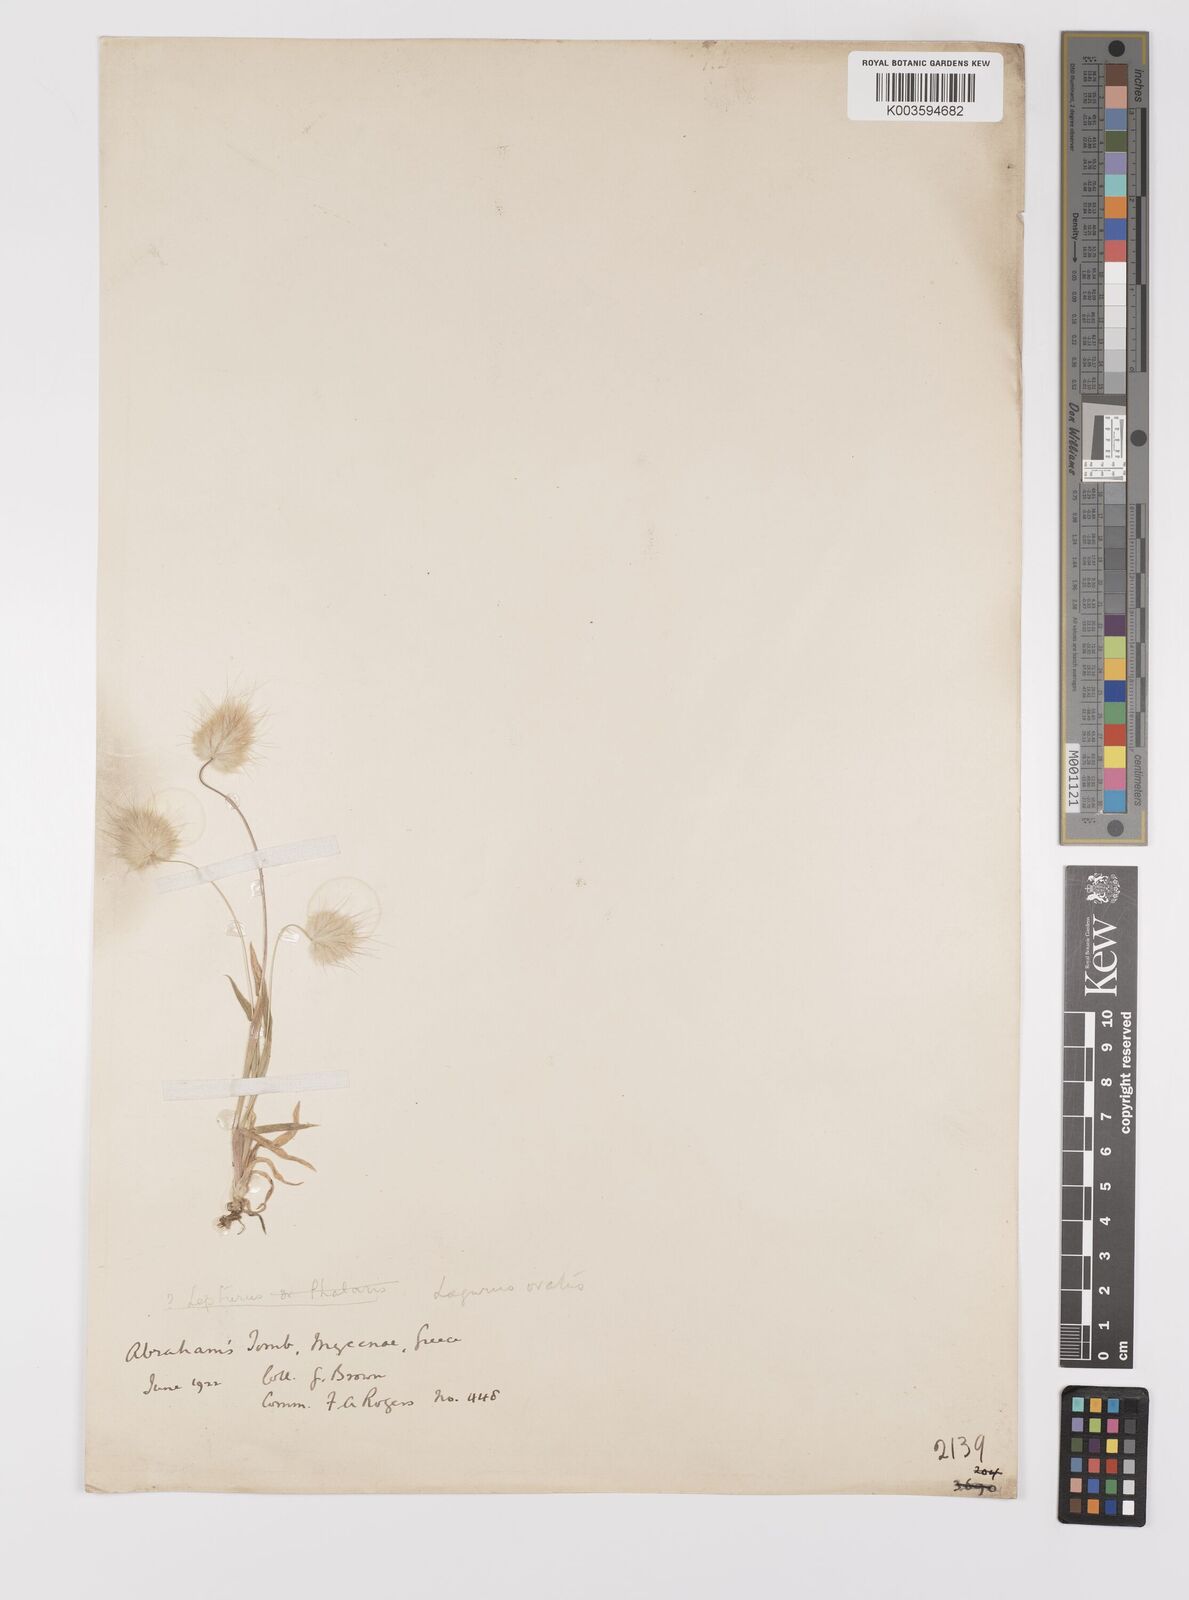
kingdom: Plantae
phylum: Tracheophyta
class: Liliopsida
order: Poales
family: Poaceae
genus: Lagurus
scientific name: Lagurus ovatus
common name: Hare's-tail
